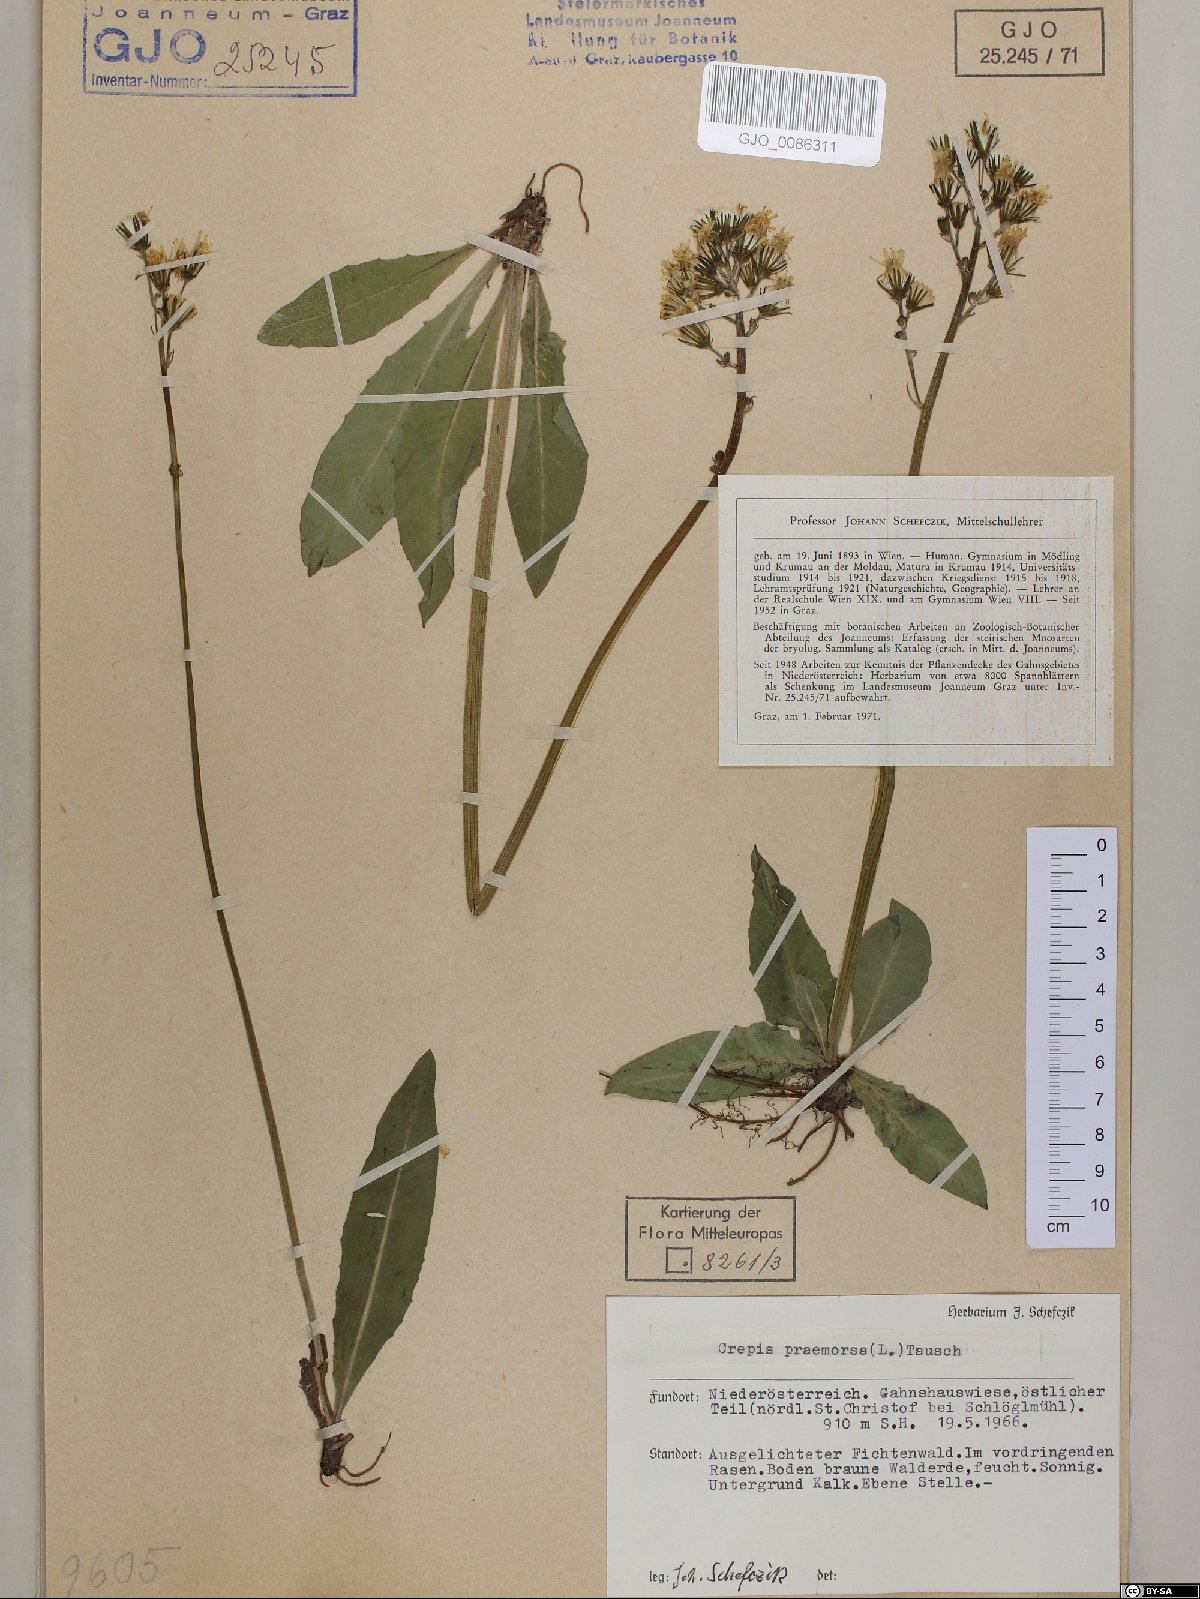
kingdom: Plantae
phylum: Tracheophyta
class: Magnoliopsida
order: Asterales
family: Asteraceae
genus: Crepis
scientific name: Crepis praemorsa
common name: Leafless hawk's-beard
